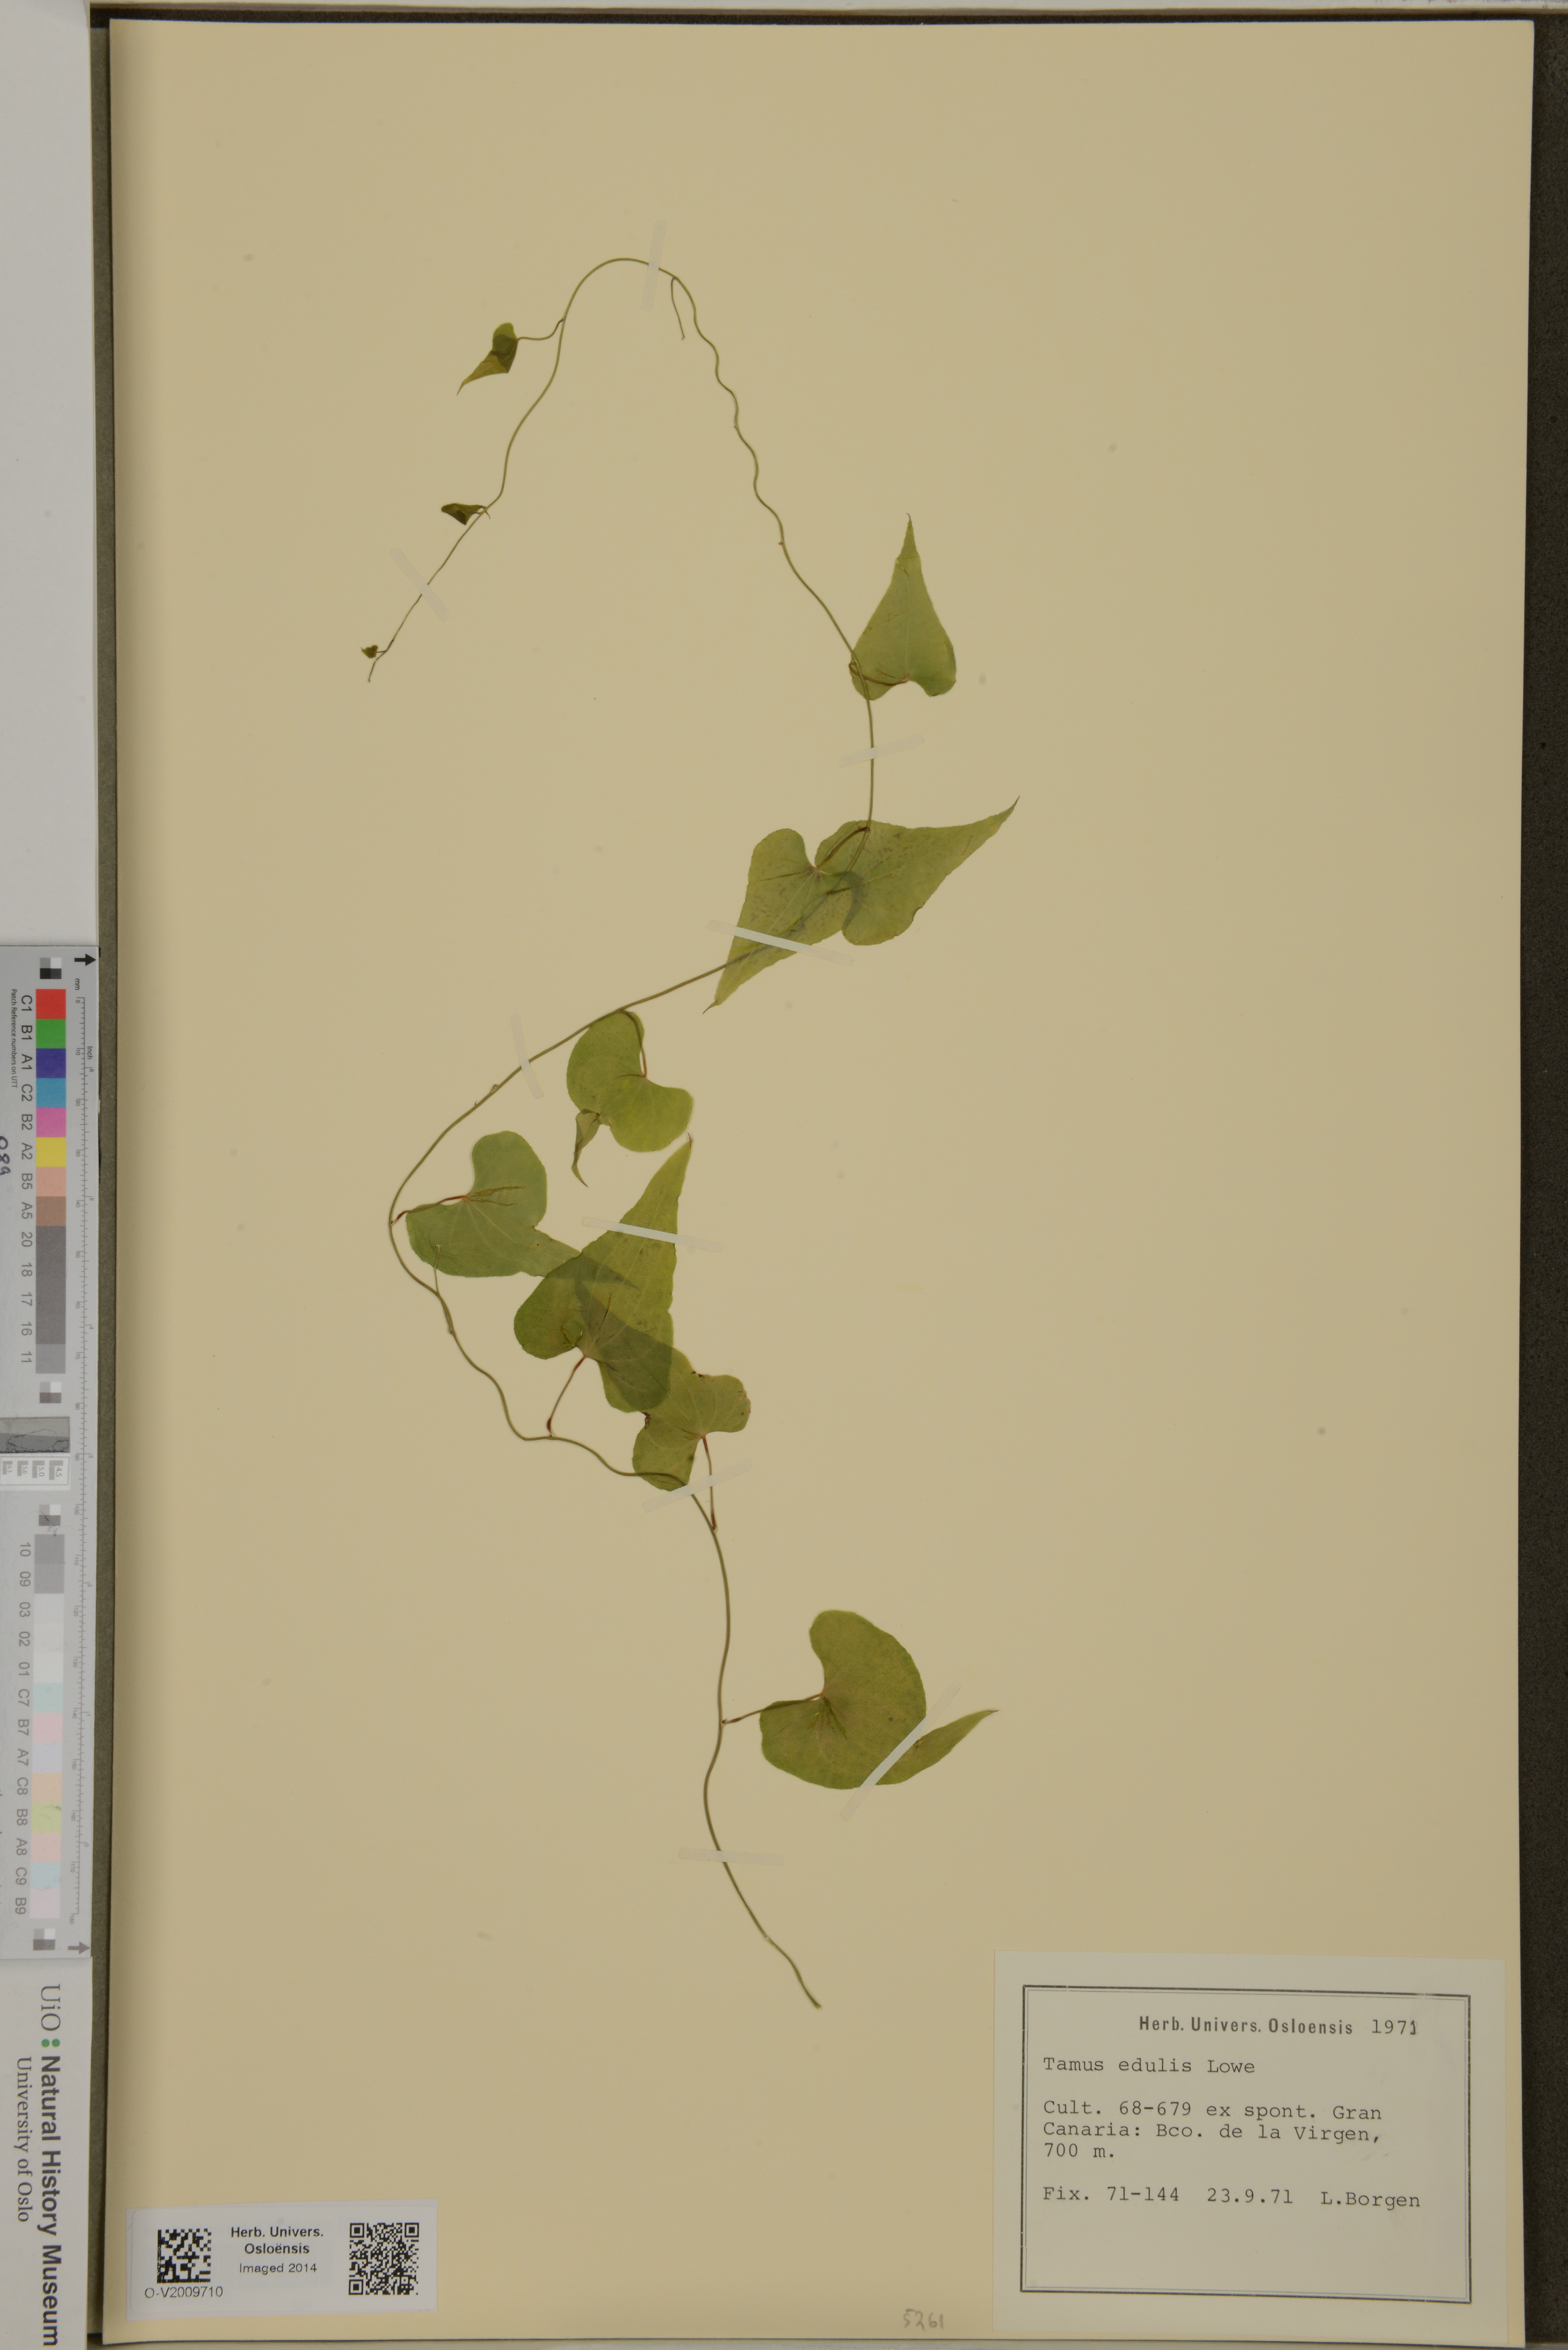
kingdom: Plantae
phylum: Tracheophyta
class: Liliopsida
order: Dioscoreales
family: Dioscoreaceae
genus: Dioscorea
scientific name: Dioscorea communis
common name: Black-bindweed
